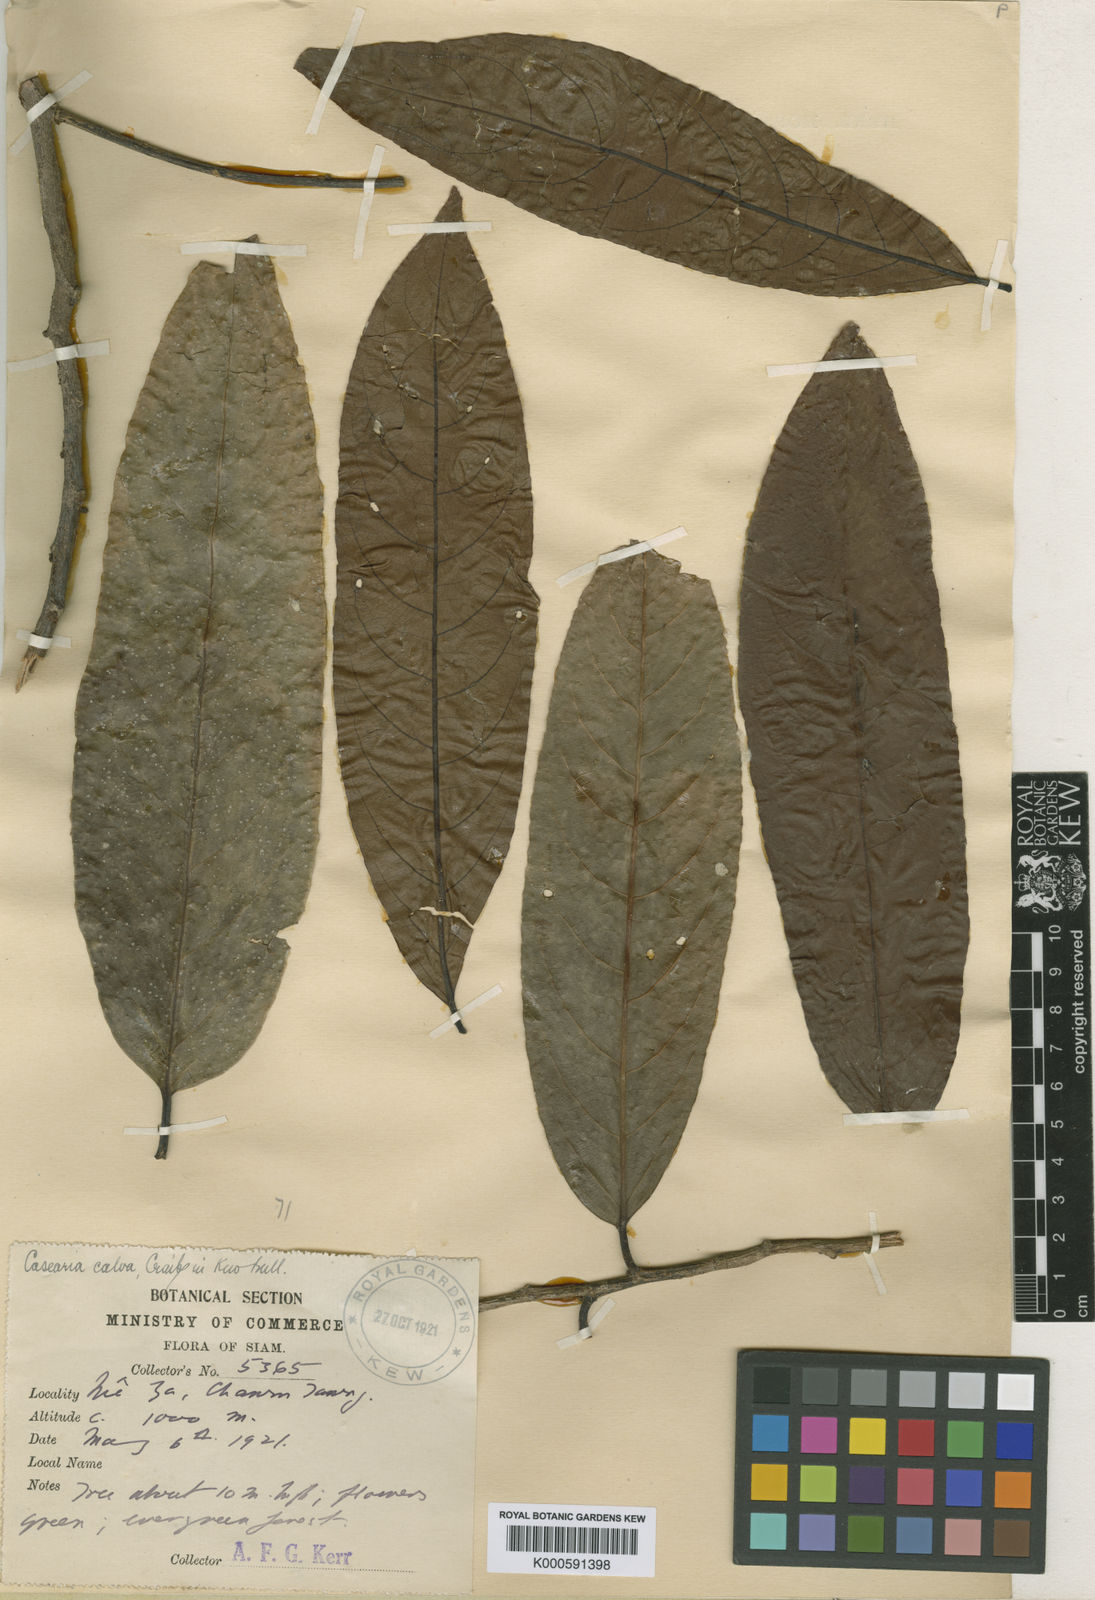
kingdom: Plantae
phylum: Tracheophyta
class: Magnoliopsida
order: Malpighiales
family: Salicaceae
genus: Casearia
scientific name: Casearia calva
